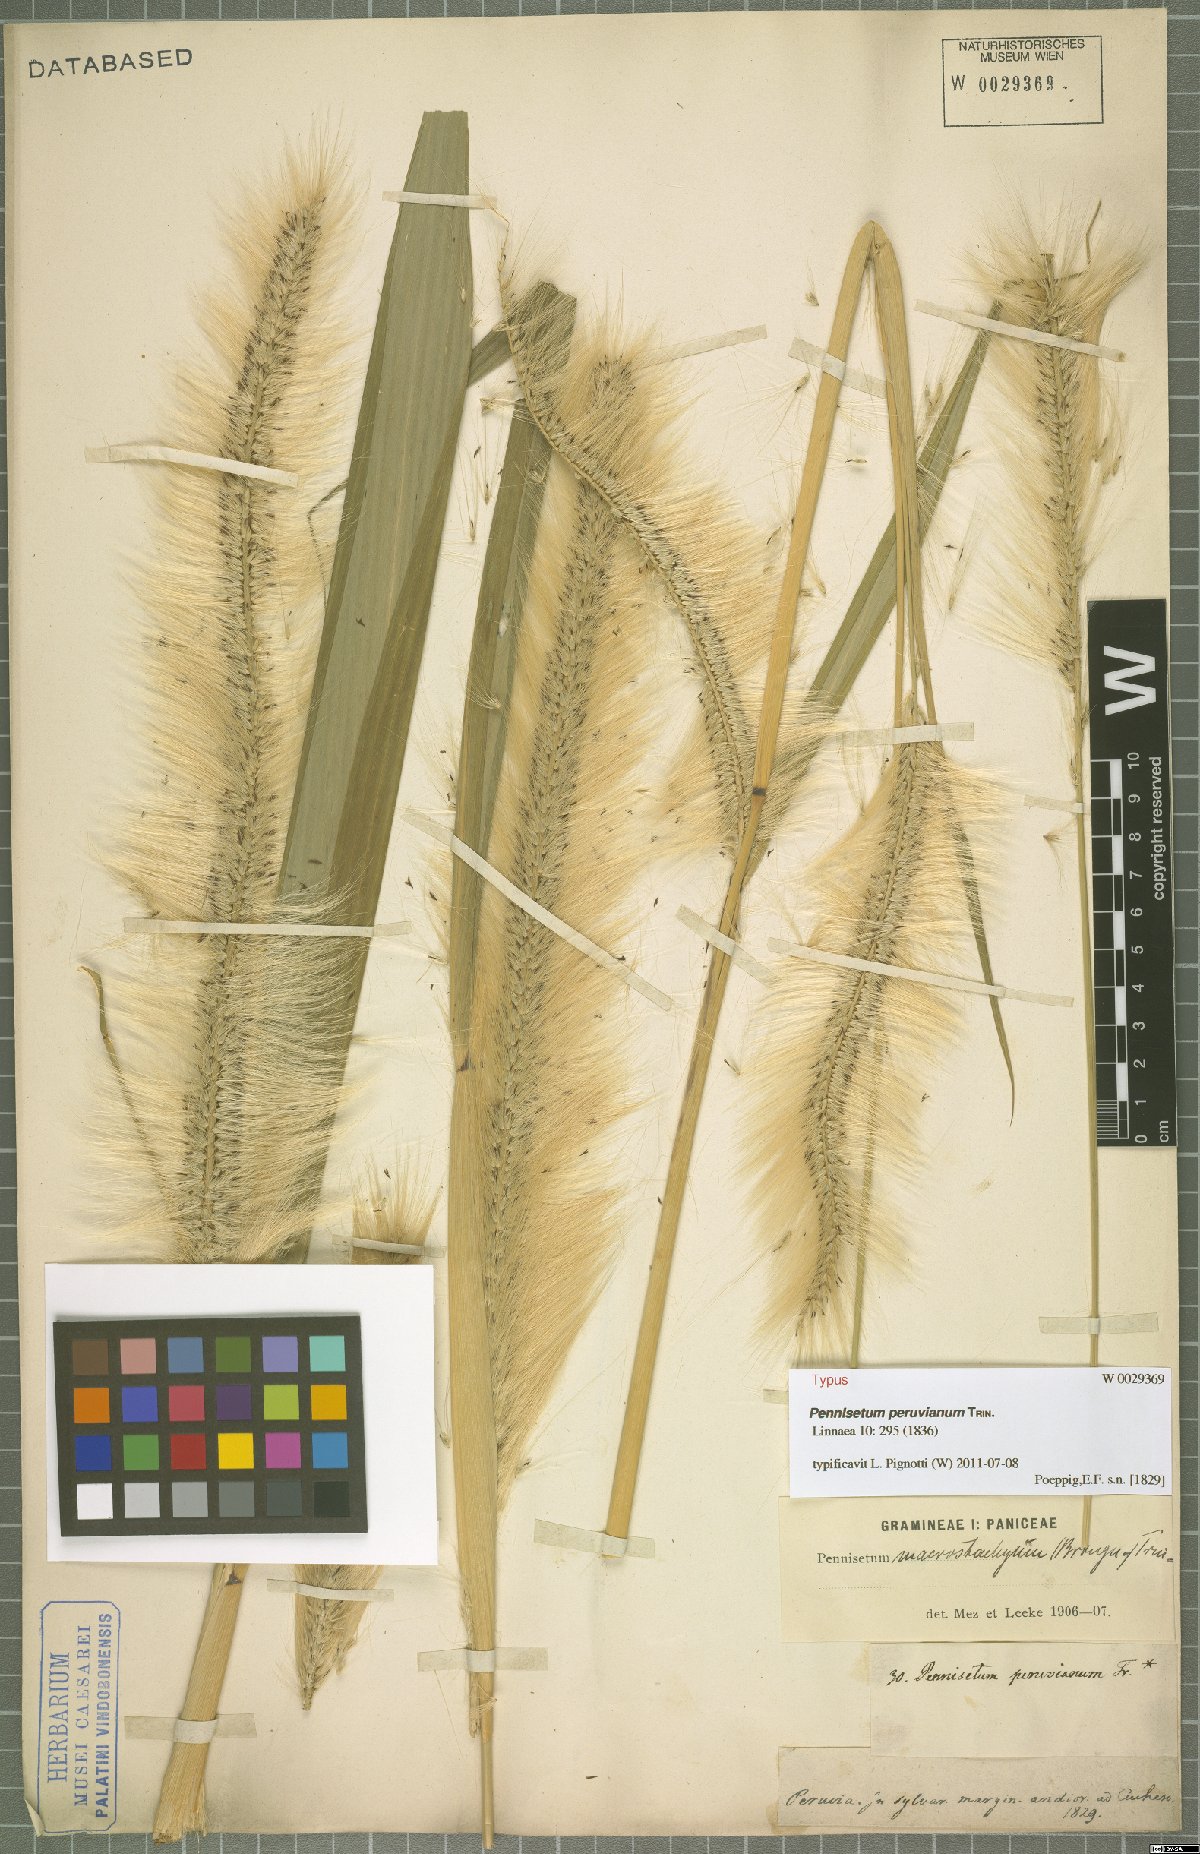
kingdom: Plantae
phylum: Tracheophyta
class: Liliopsida
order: Poales
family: Poaceae
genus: Cenchrus
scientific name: Cenchrus peruvianus
